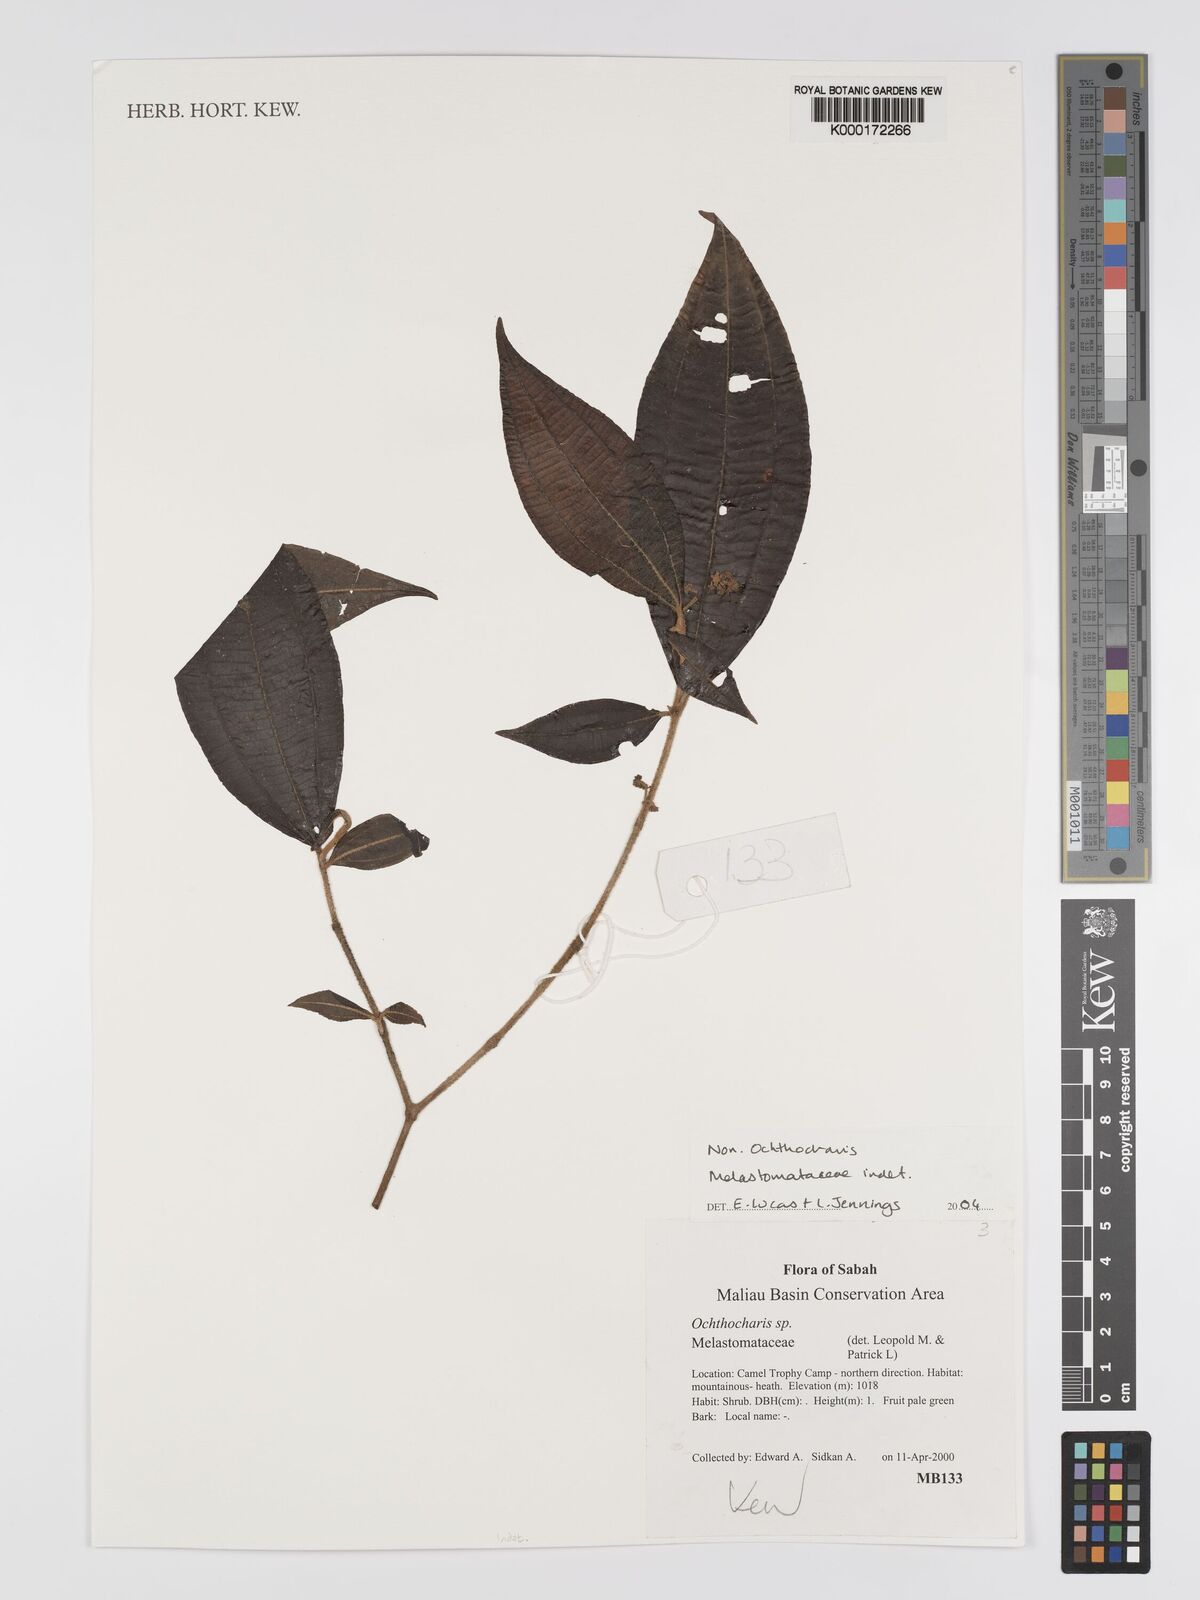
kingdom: Plantae
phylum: Tracheophyta
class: Magnoliopsida
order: Myrtales
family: Melastomataceae
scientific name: Melastomataceae
